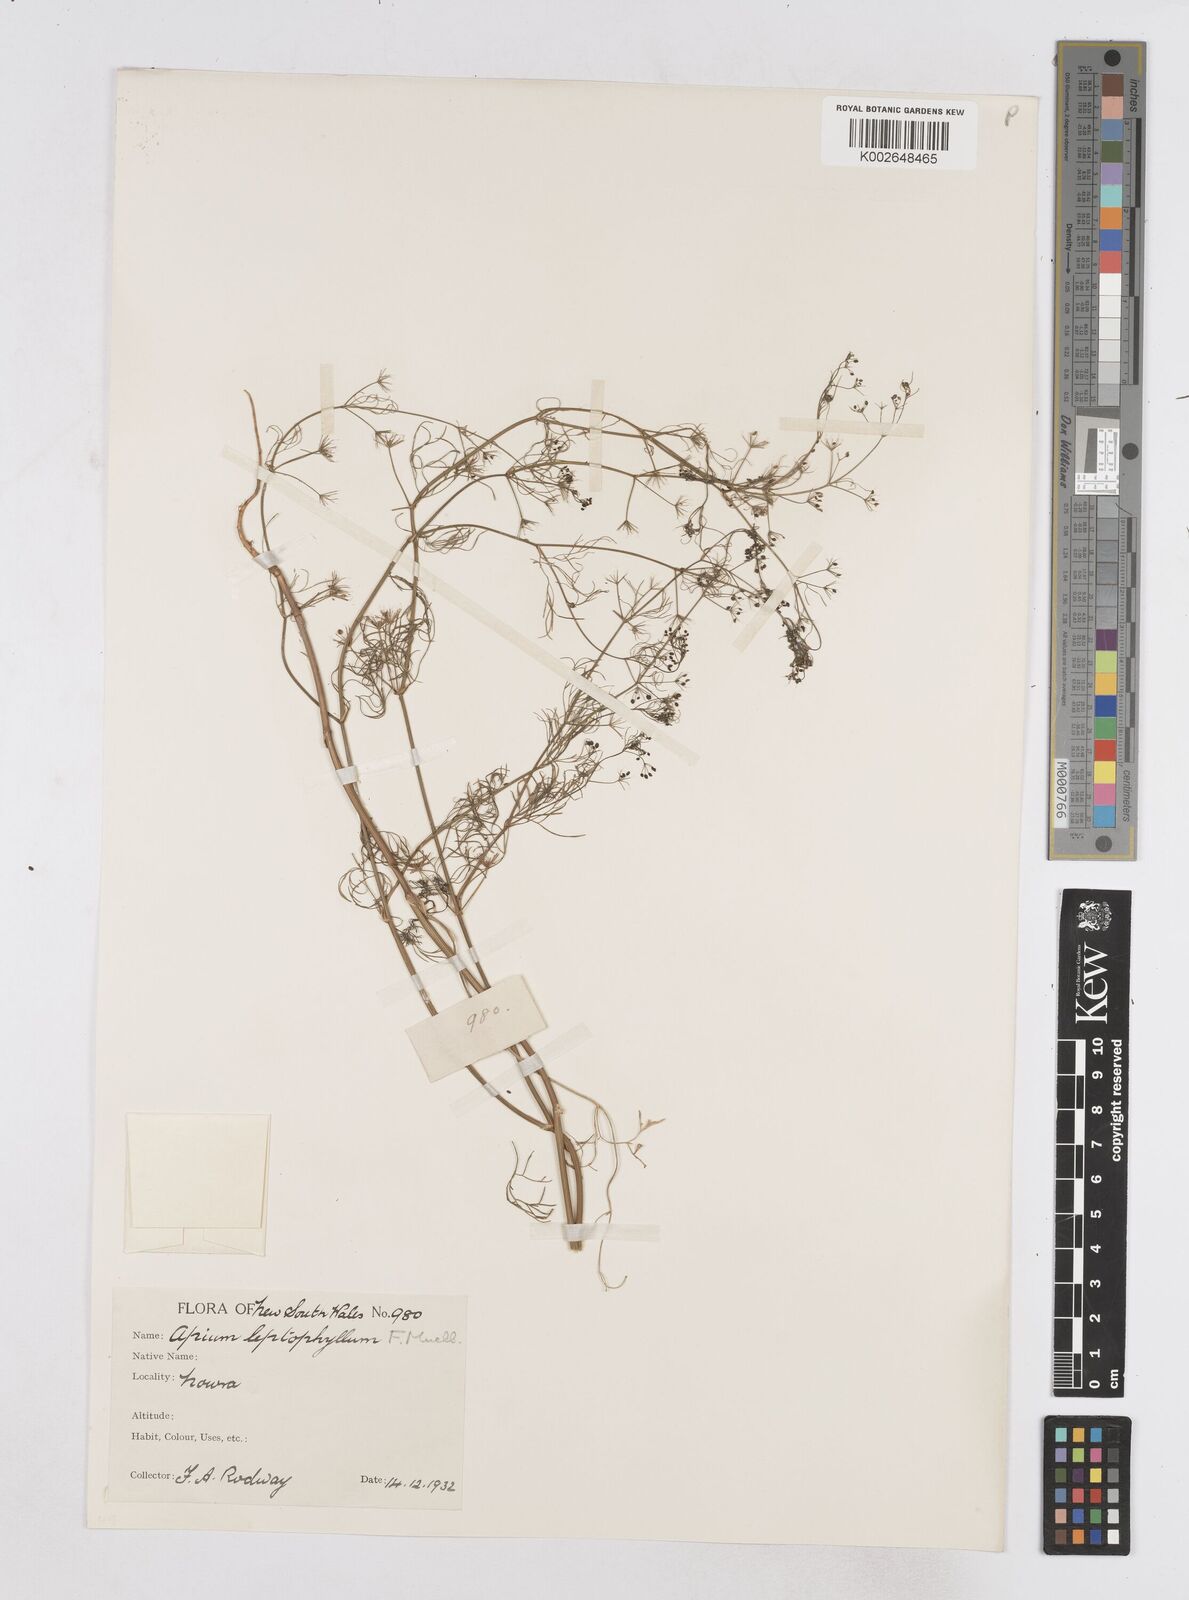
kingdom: Plantae
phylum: Tracheophyta
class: Magnoliopsida
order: Apiales
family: Apiaceae
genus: Cyclospermum
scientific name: Cyclospermum leptophyllum
